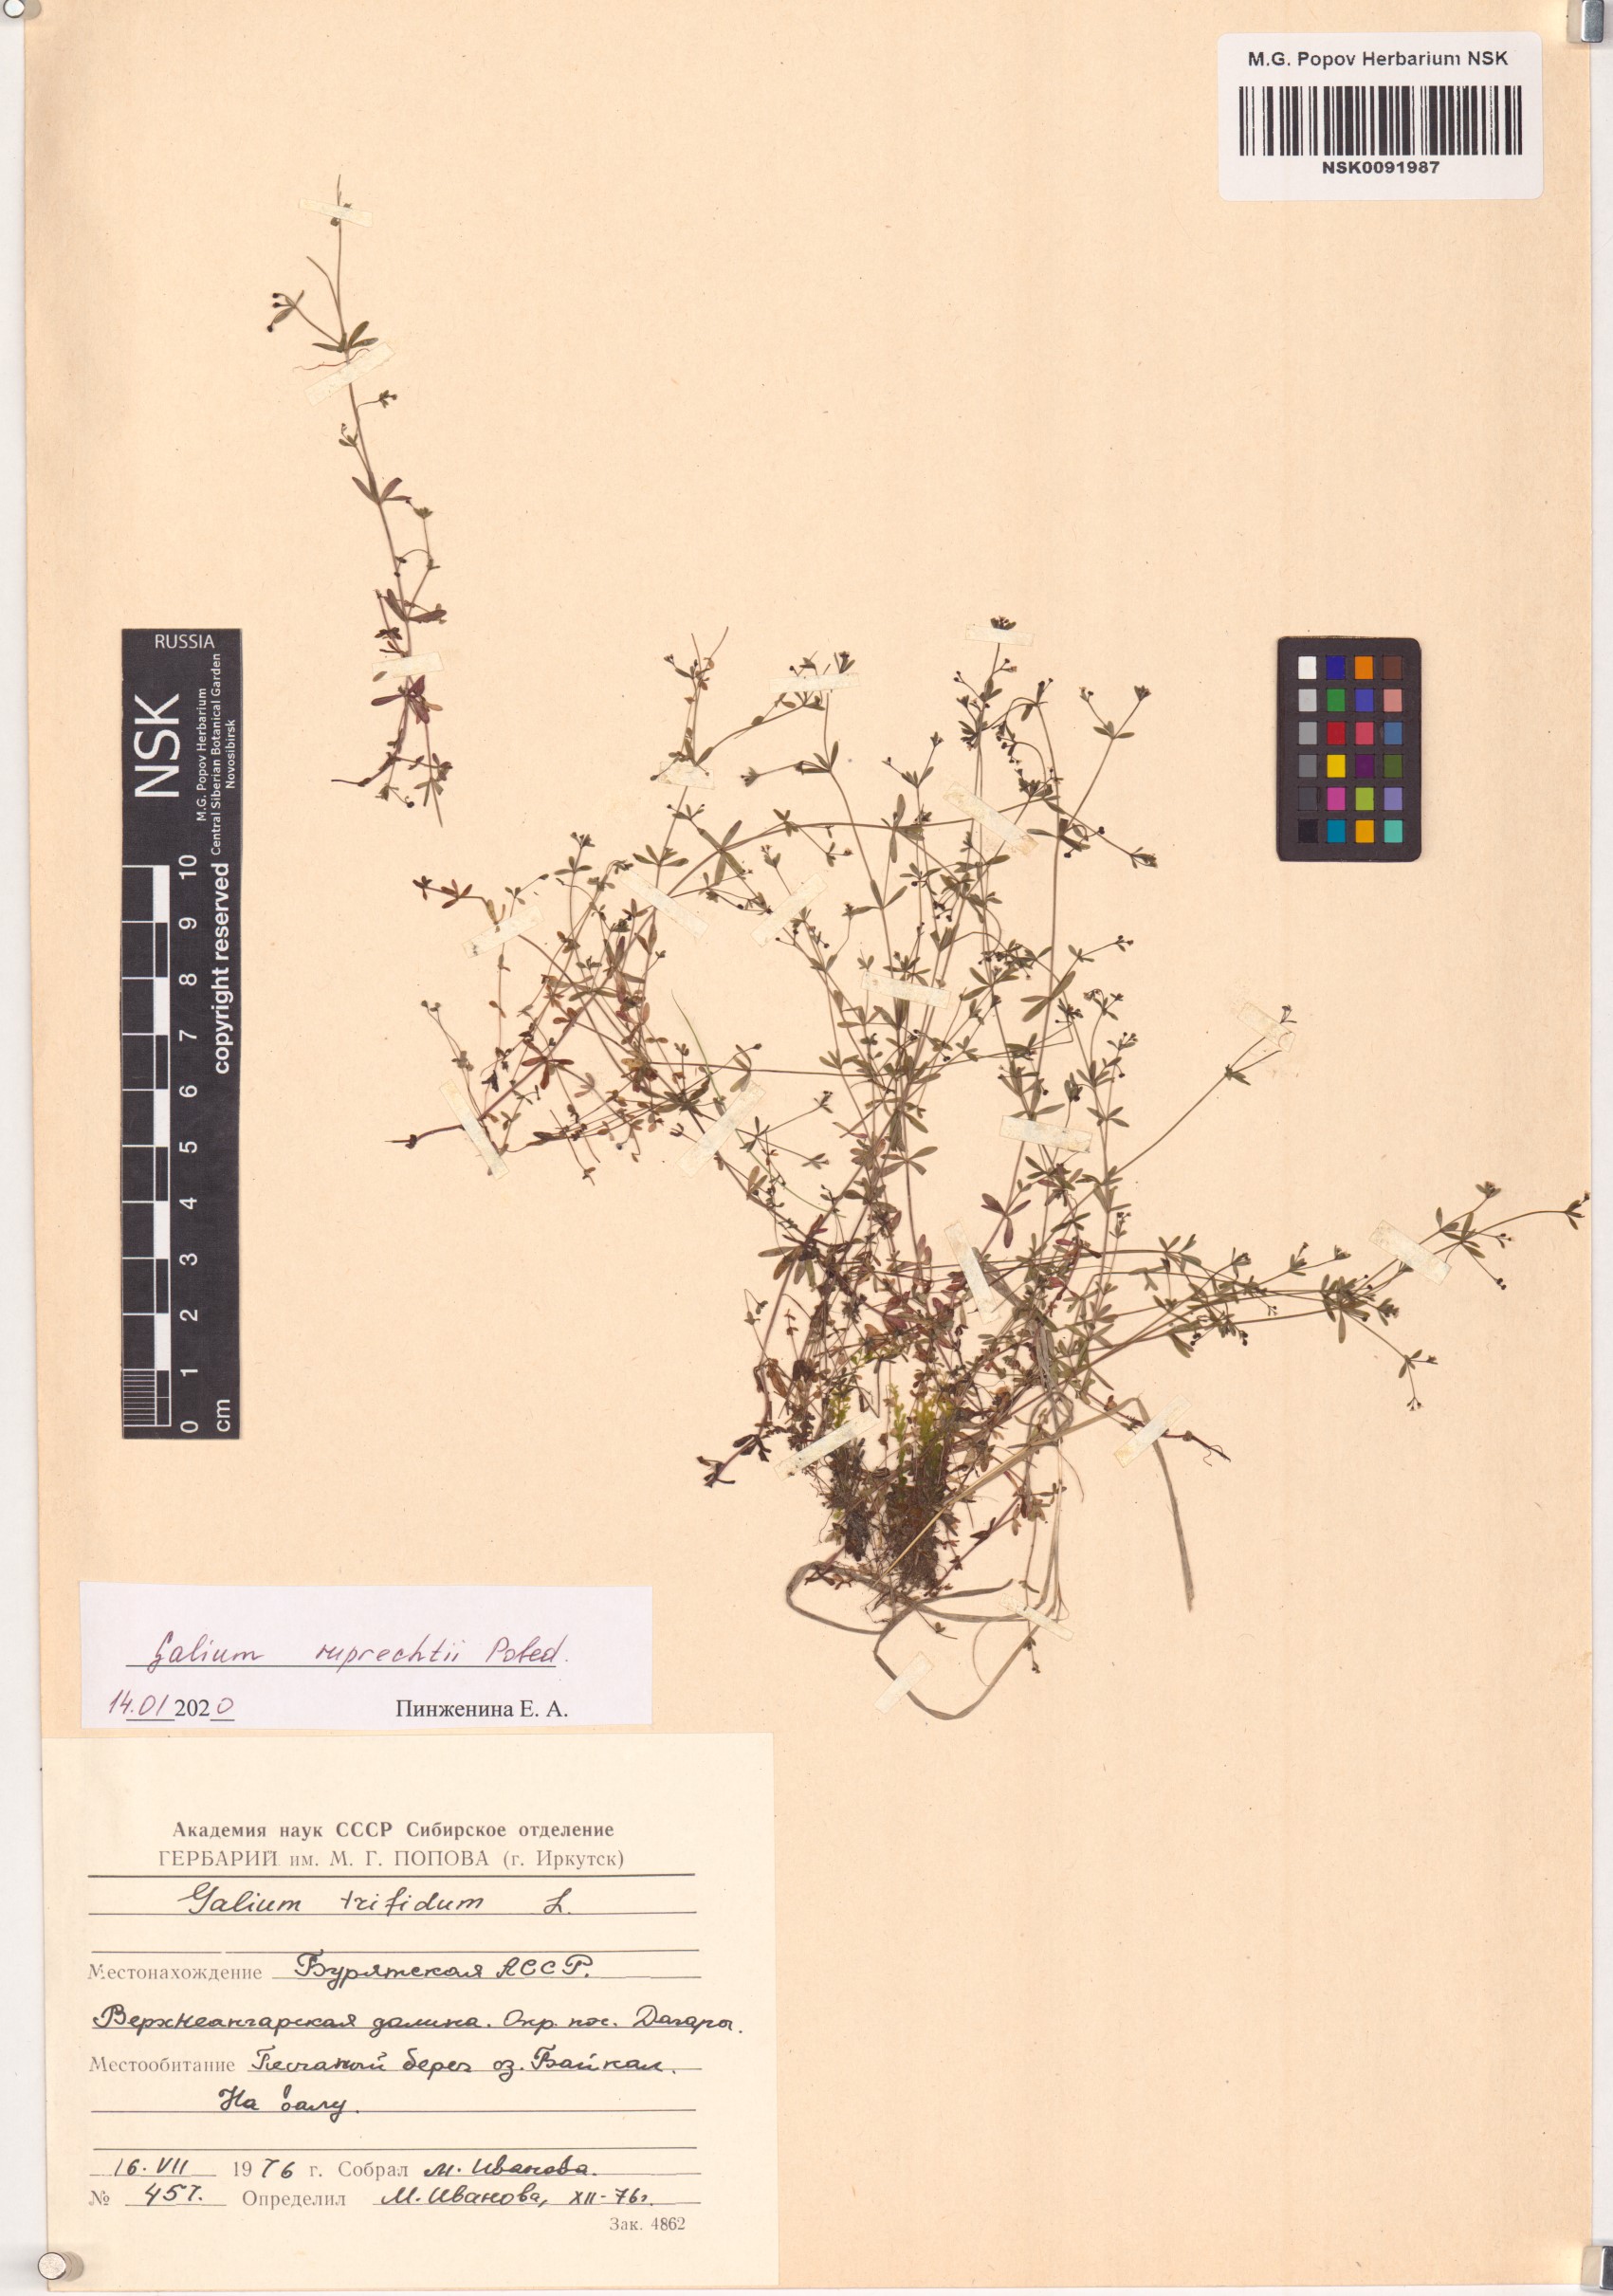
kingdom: Plantae
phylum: Tracheophyta
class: Magnoliopsida
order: Gentianales
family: Rubiaceae
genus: Galium
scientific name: Galium trifidum
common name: Small bedstraw
